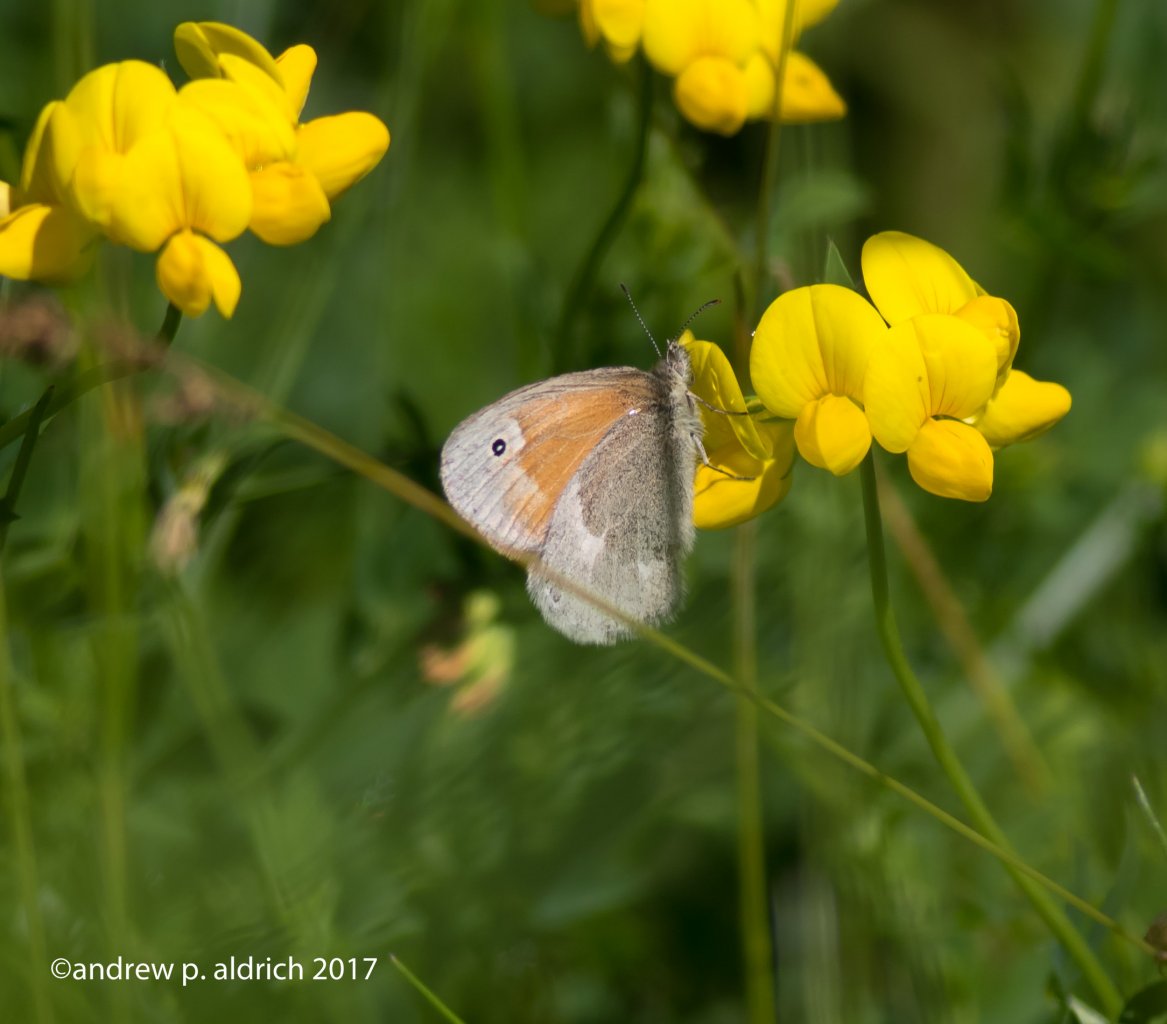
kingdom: Animalia
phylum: Arthropoda
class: Insecta
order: Lepidoptera
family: Nymphalidae
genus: Coenonympha
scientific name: Coenonympha tullia
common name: Large Heath
